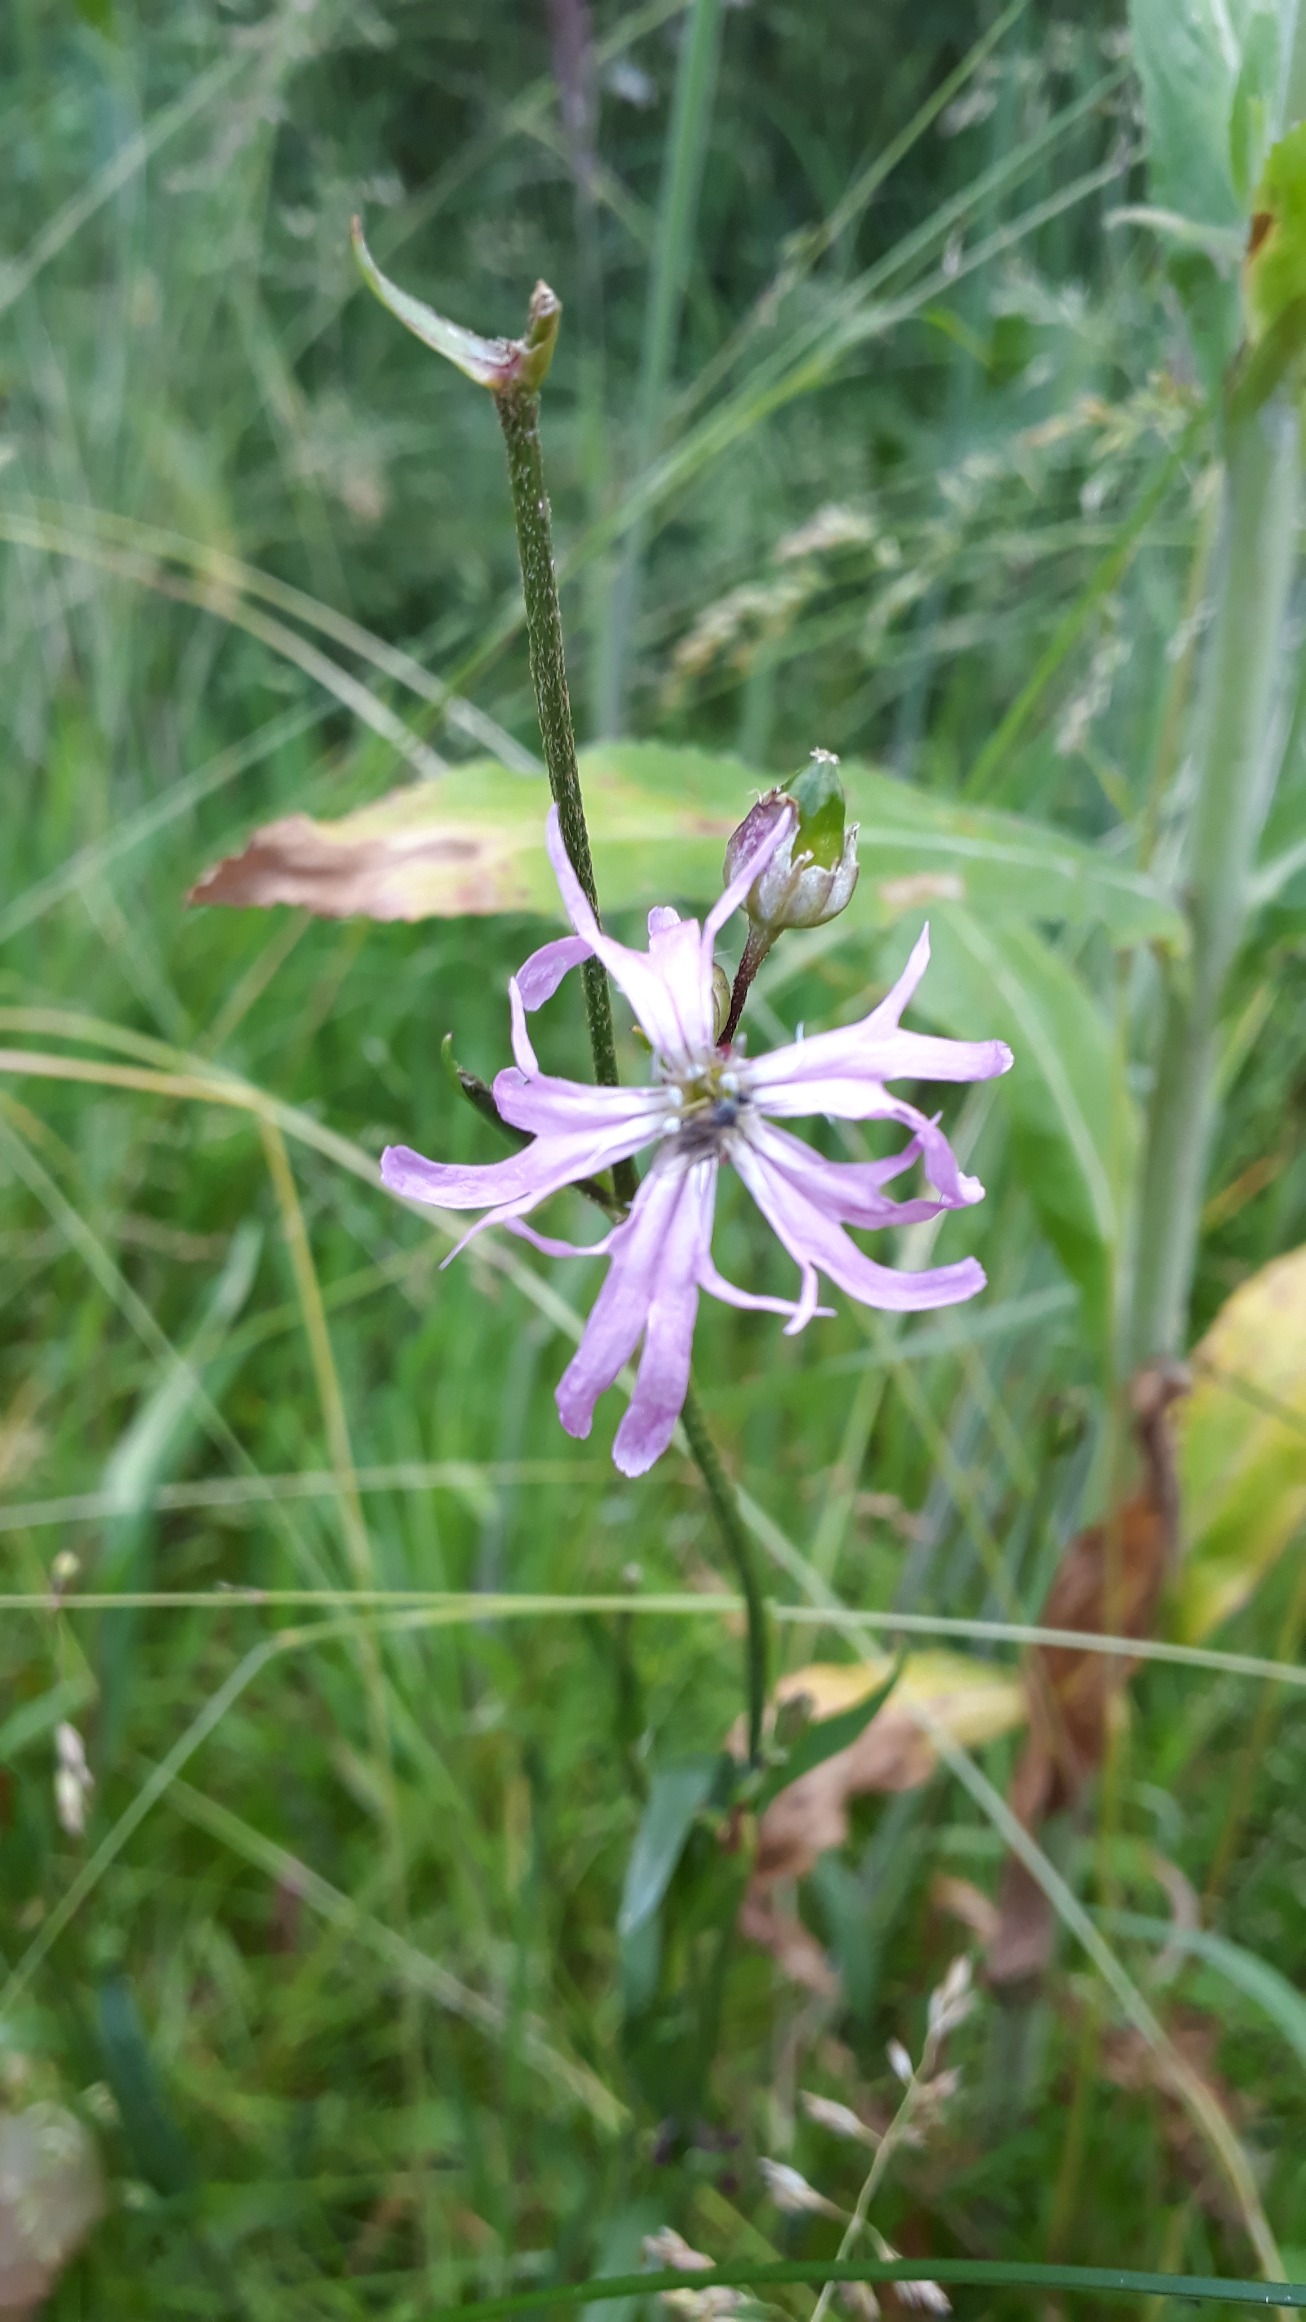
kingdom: Plantae
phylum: Tracheophyta
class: Magnoliopsida
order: Caryophyllales
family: Caryophyllaceae
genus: Silene
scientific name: Silene flos-cuculi
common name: Trævlekrone
